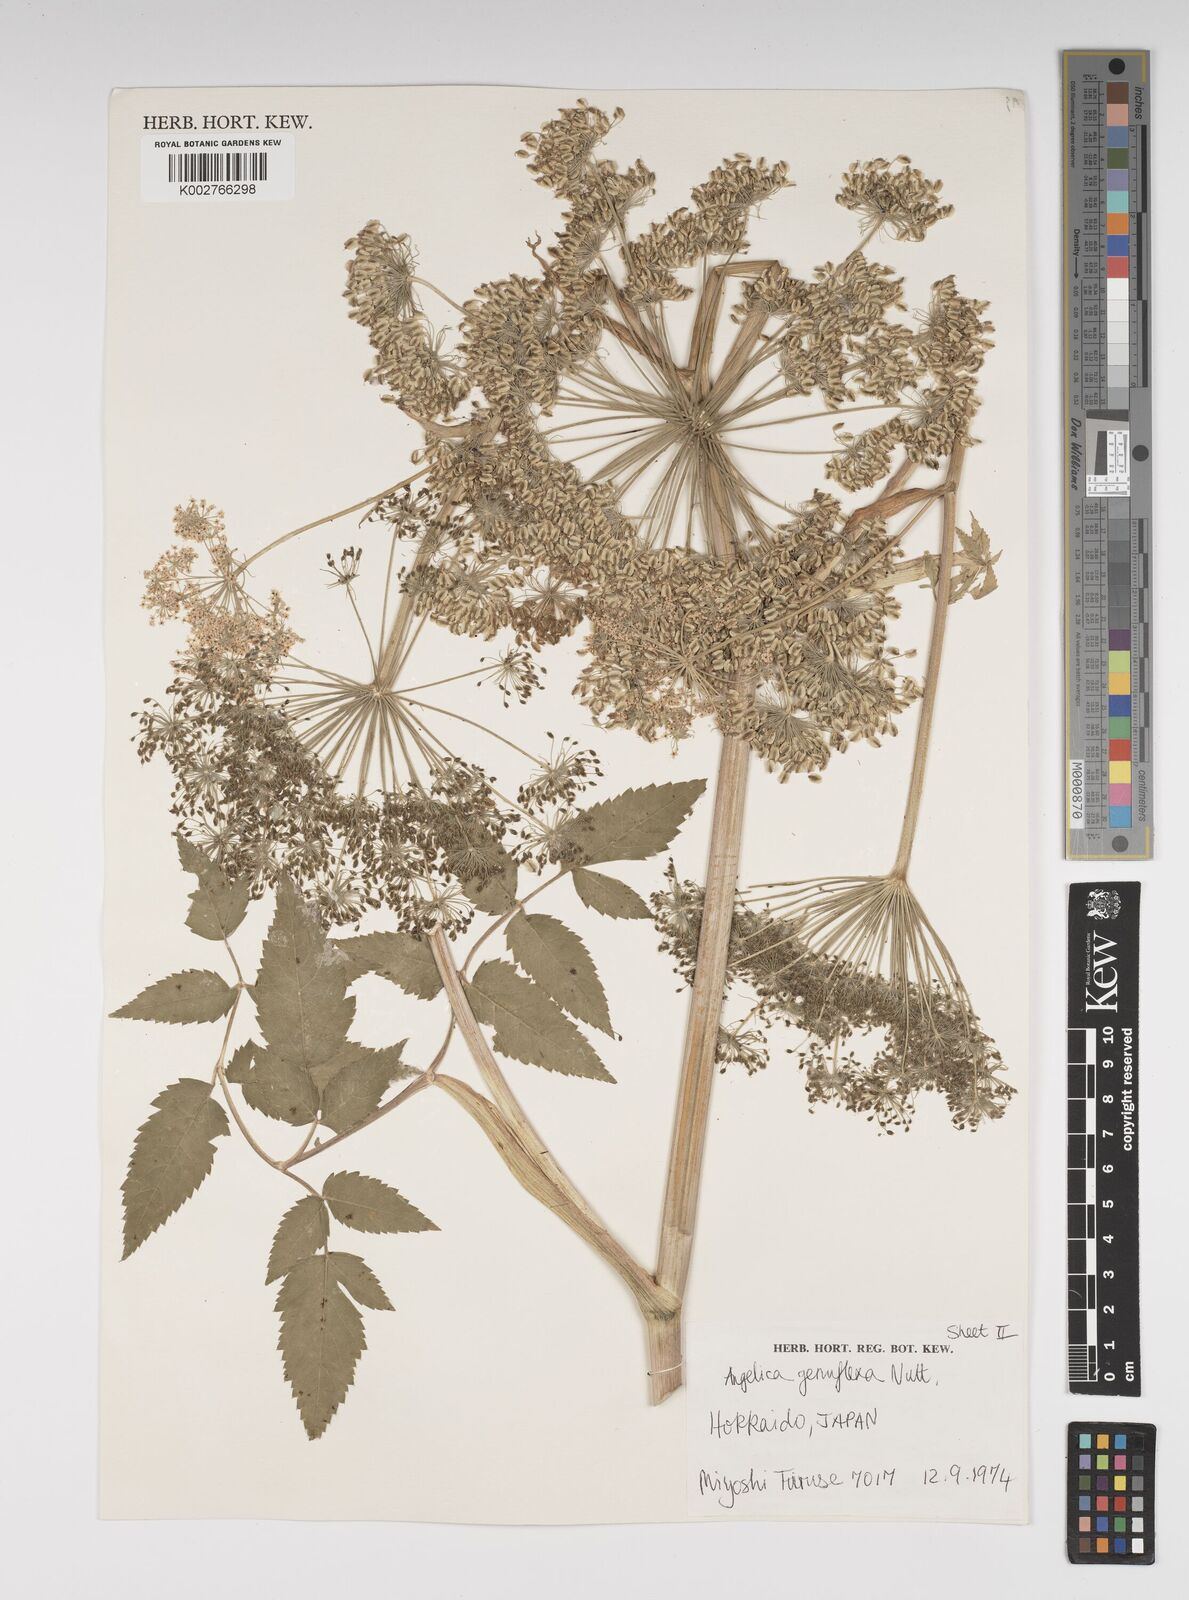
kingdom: Plantae
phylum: Tracheophyta
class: Magnoliopsida
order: Apiales
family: Apiaceae
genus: Angelica
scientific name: Angelica genuflexa
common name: Kneeling angelica
